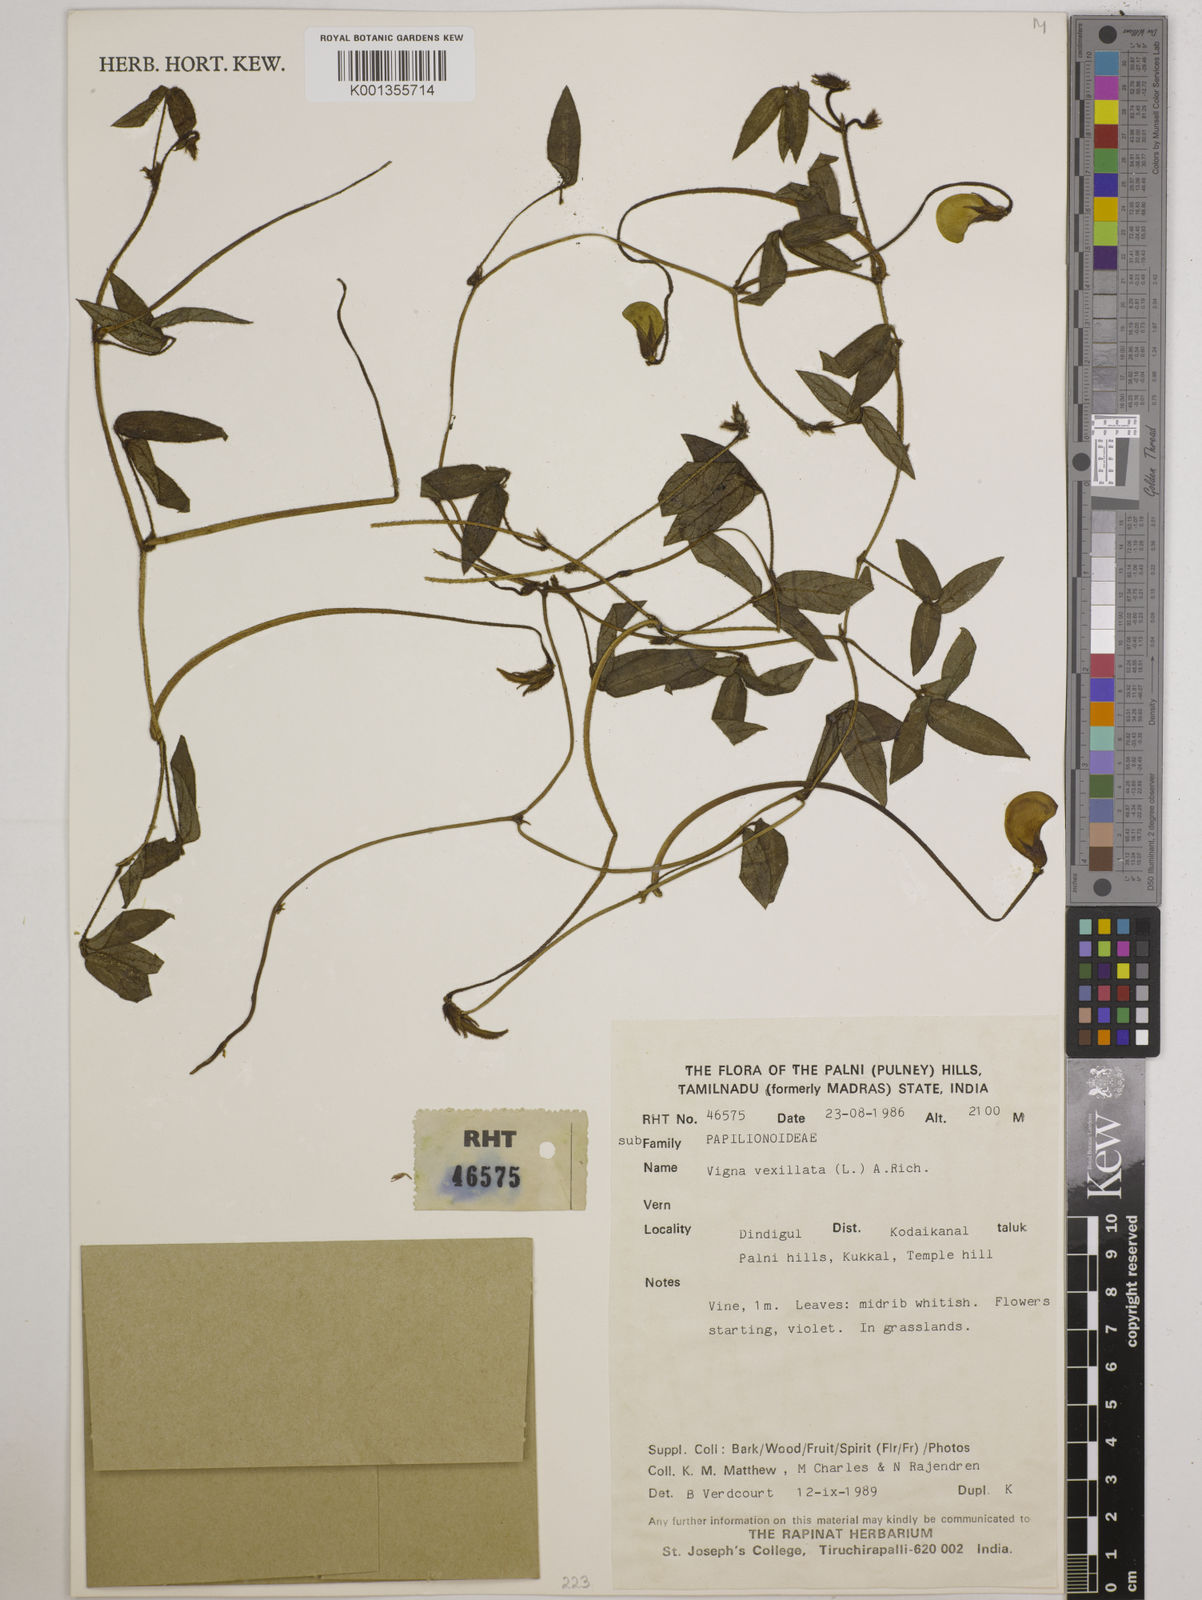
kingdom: Plantae
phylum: Tracheophyta
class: Magnoliopsida
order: Fabales
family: Fabaceae
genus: Vigna
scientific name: Vigna vexillata
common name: Zombi pea
